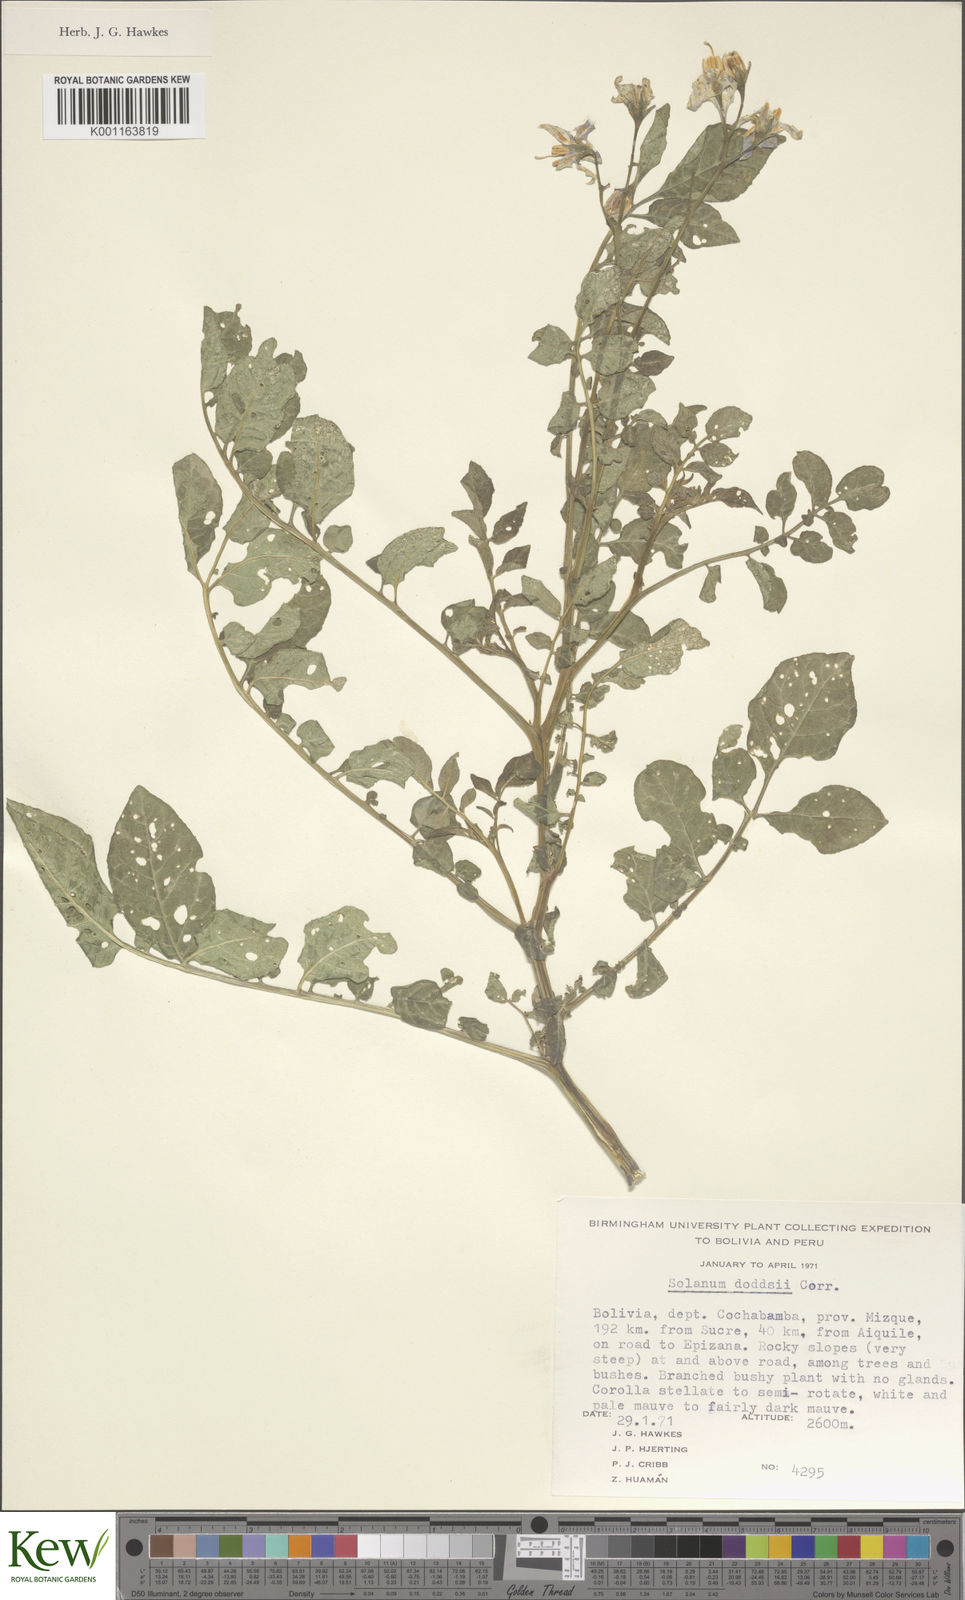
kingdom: Plantae
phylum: Tracheophyta
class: Magnoliopsida
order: Solanales
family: Solanaceae
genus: Solanum
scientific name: Solanum doddsii
